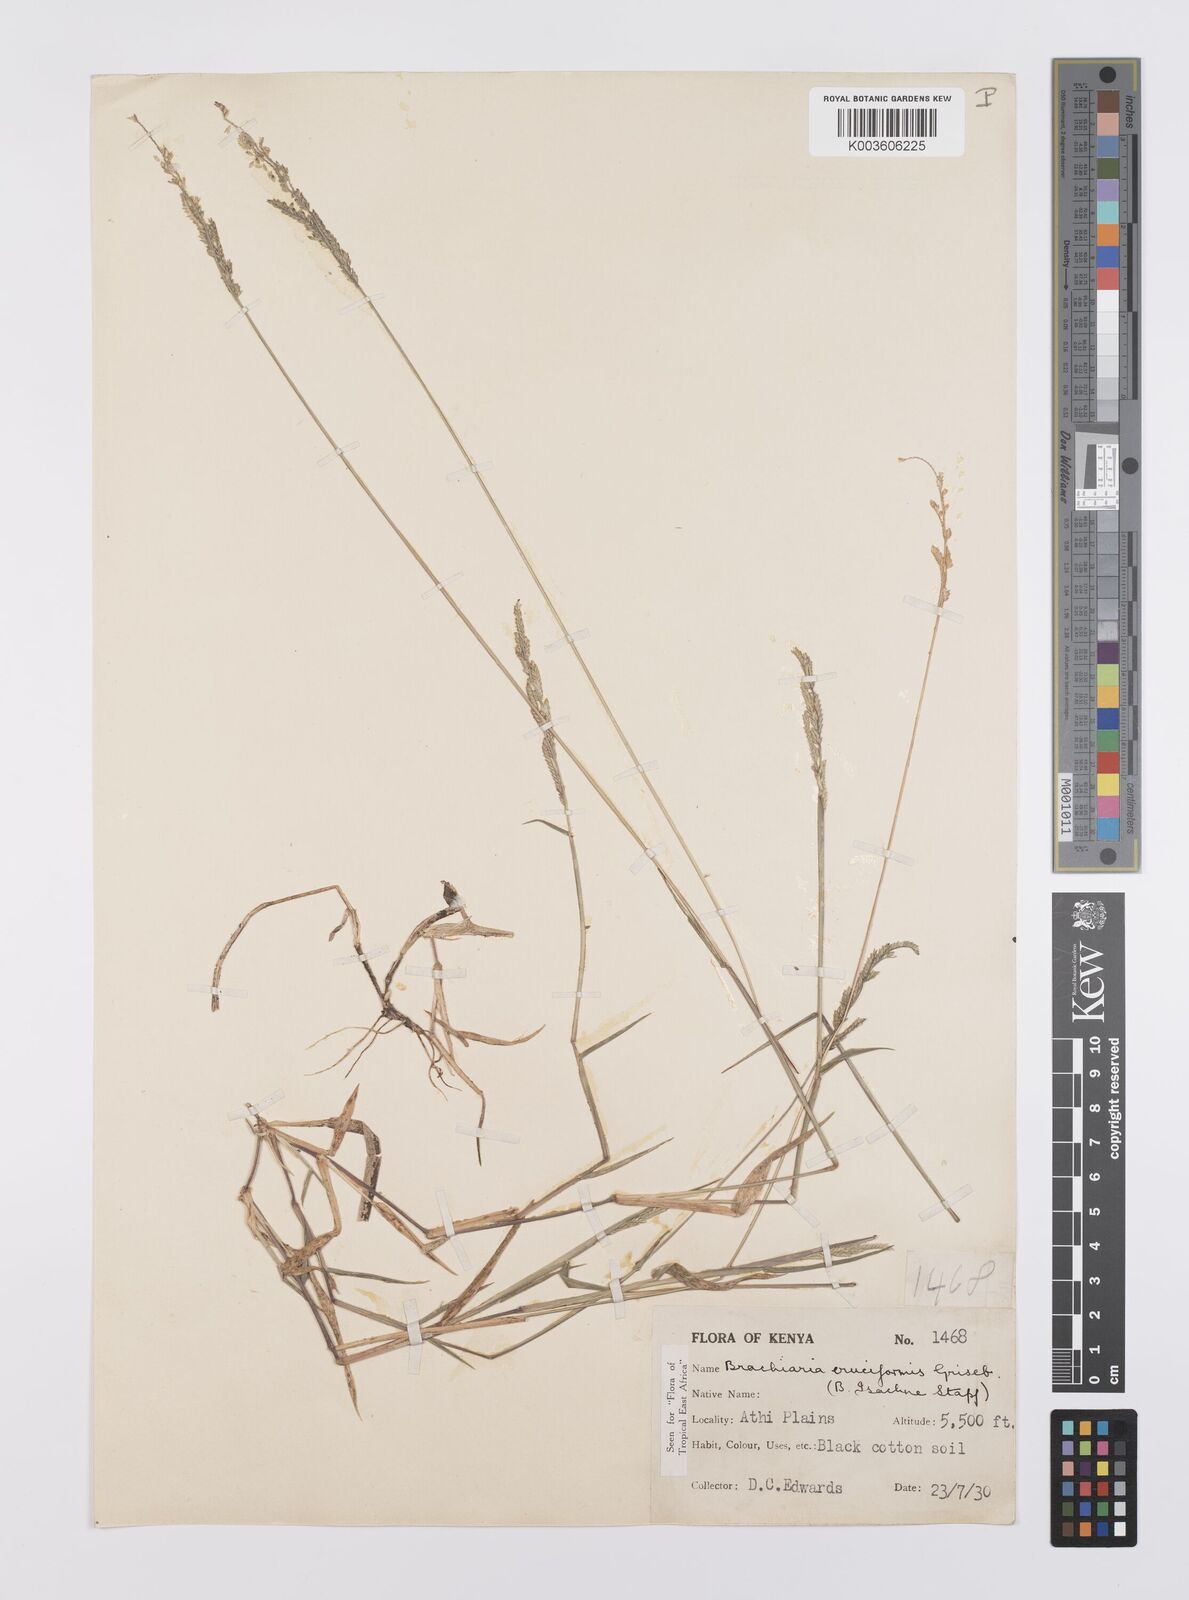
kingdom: Plantae
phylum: Tracheophyta
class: Liliopsida
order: Poales
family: Poaceae
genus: Moorochloa
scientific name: Moorochloa eruciformis
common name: Sweet signalgrass
